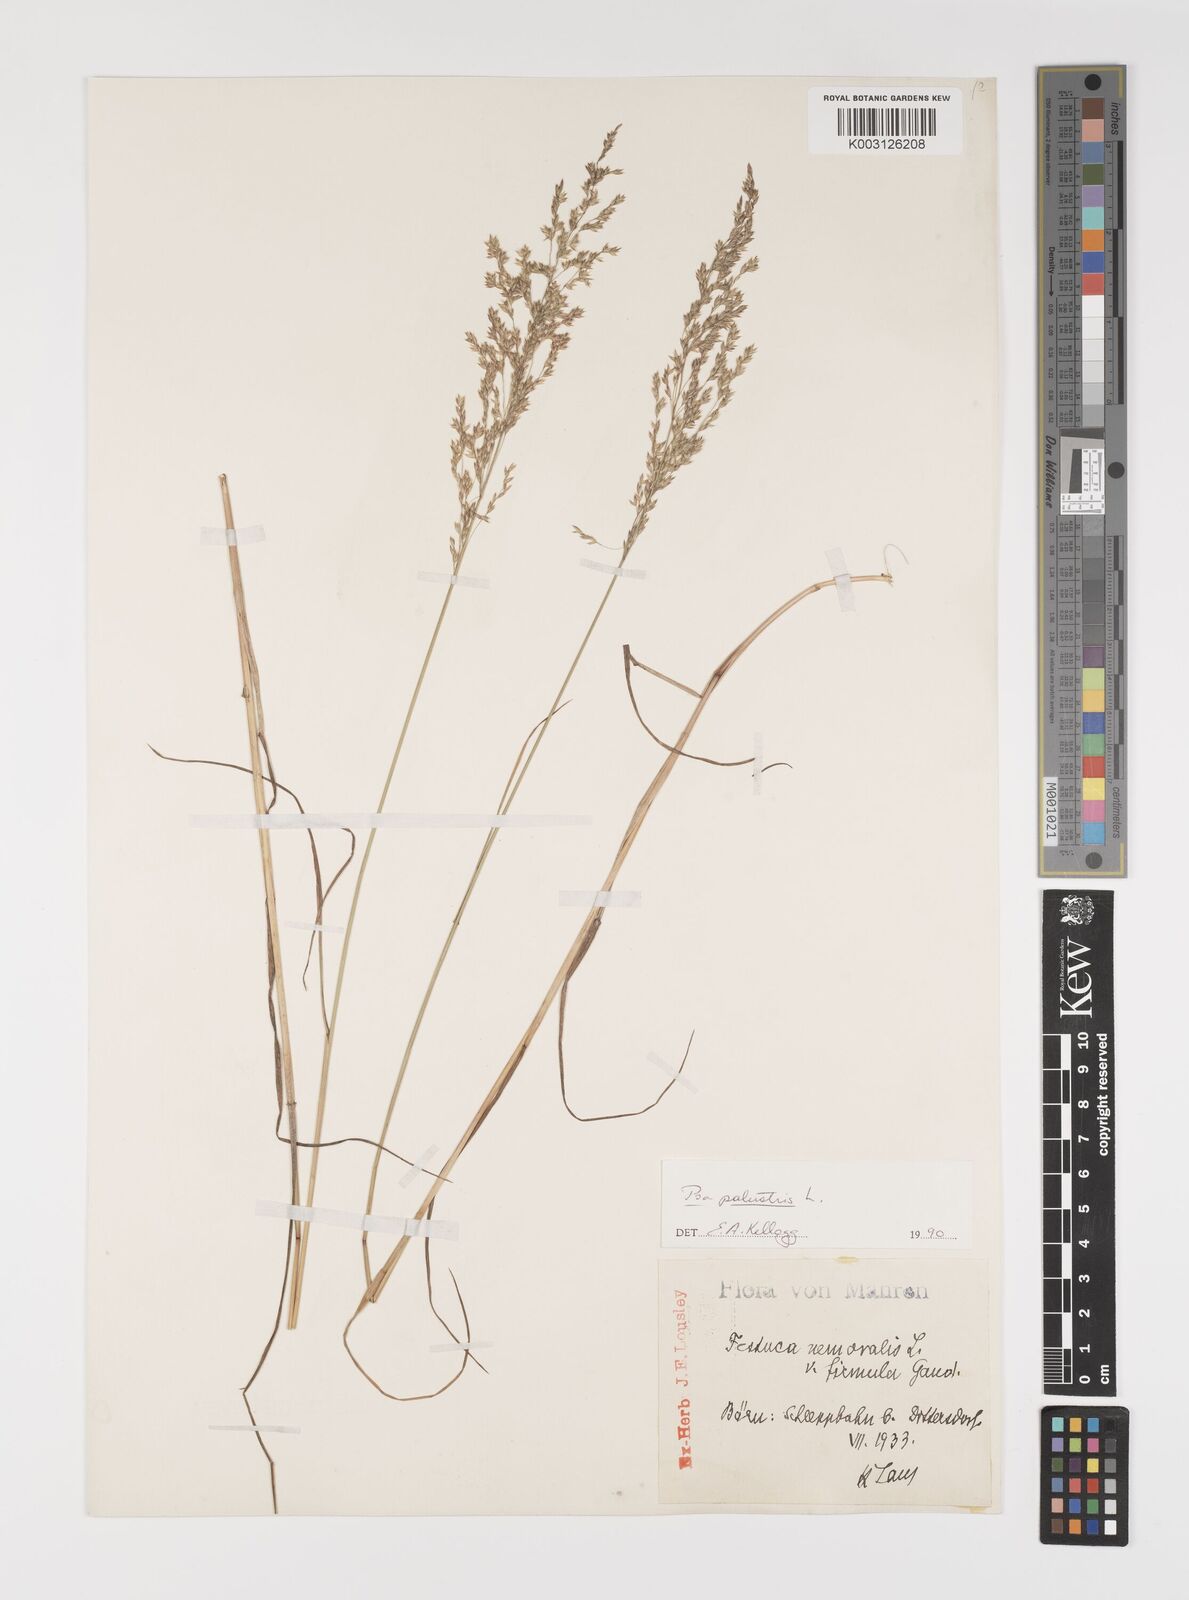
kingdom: Plantae
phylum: Tracheophyta
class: Liliopsida
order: Poales
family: Poaceae
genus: Poa
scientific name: Poa palustris
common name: Swamp meadow-grass
